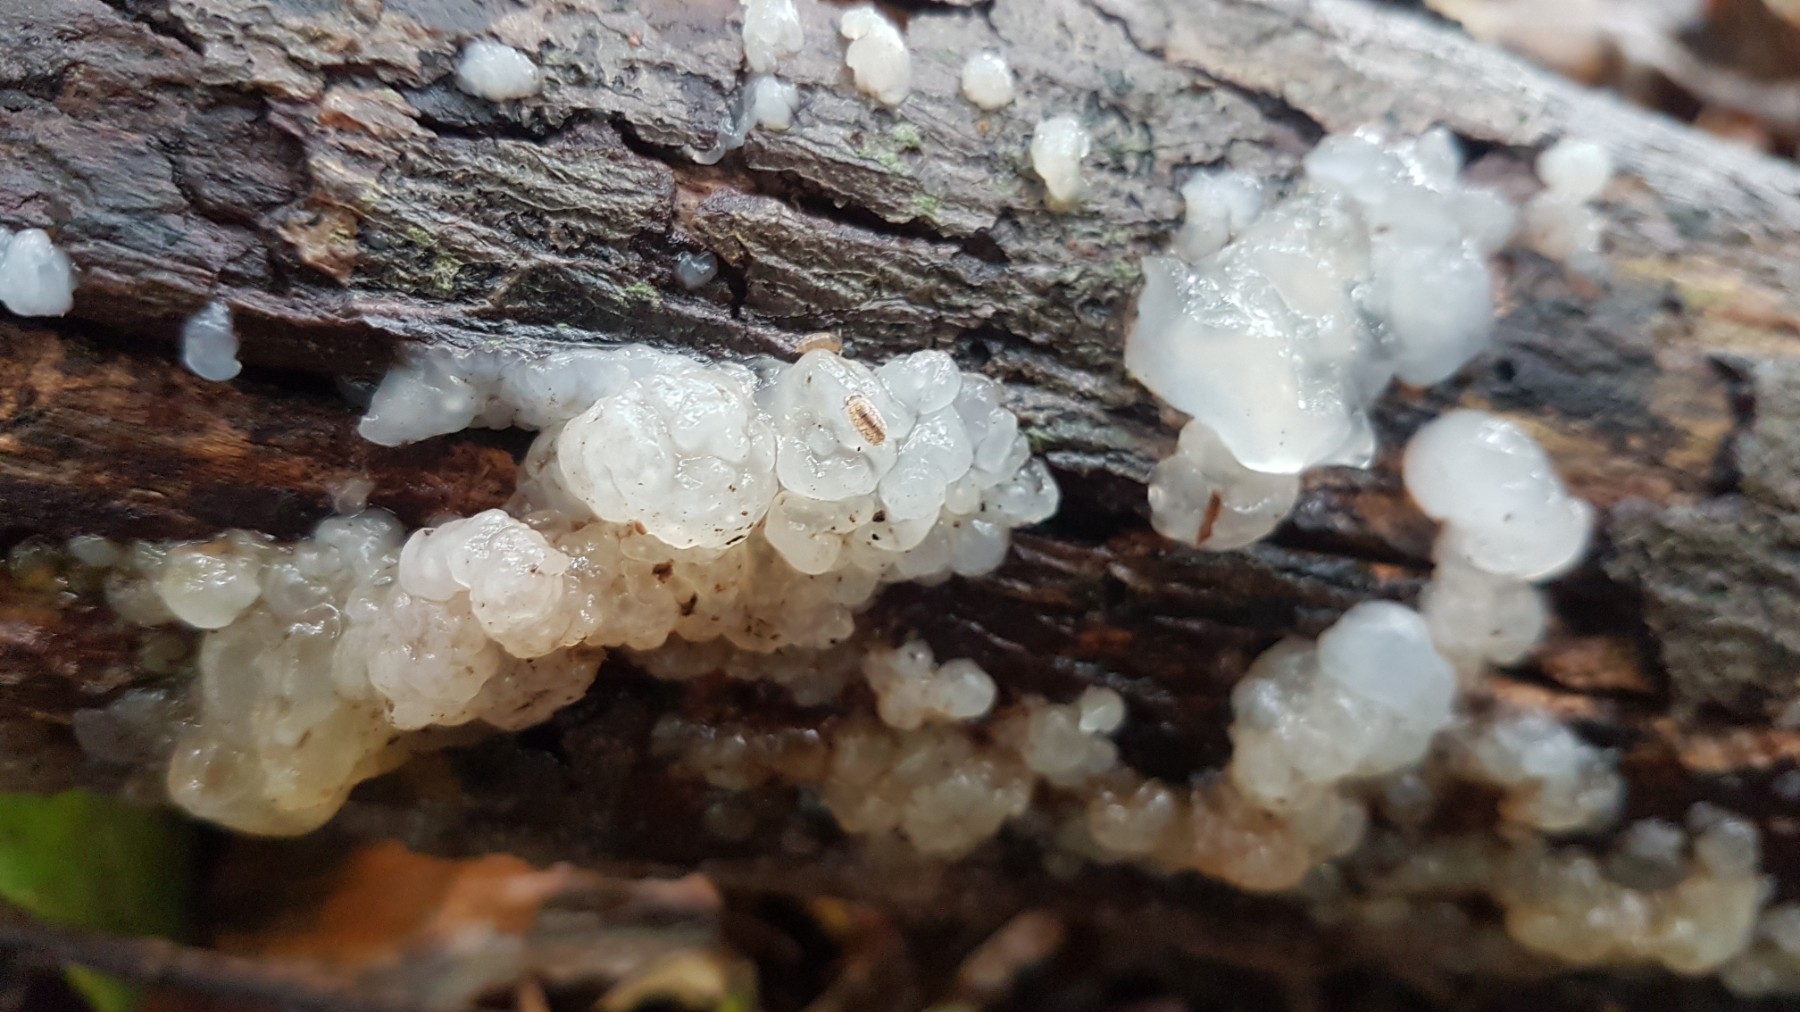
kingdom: Fungi
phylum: Basidiomycota
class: Agaricomycetes
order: Auriculariales
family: Hyaloriaceae
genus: Myxarium
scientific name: Myxarium nucleatum
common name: klar bævretop
